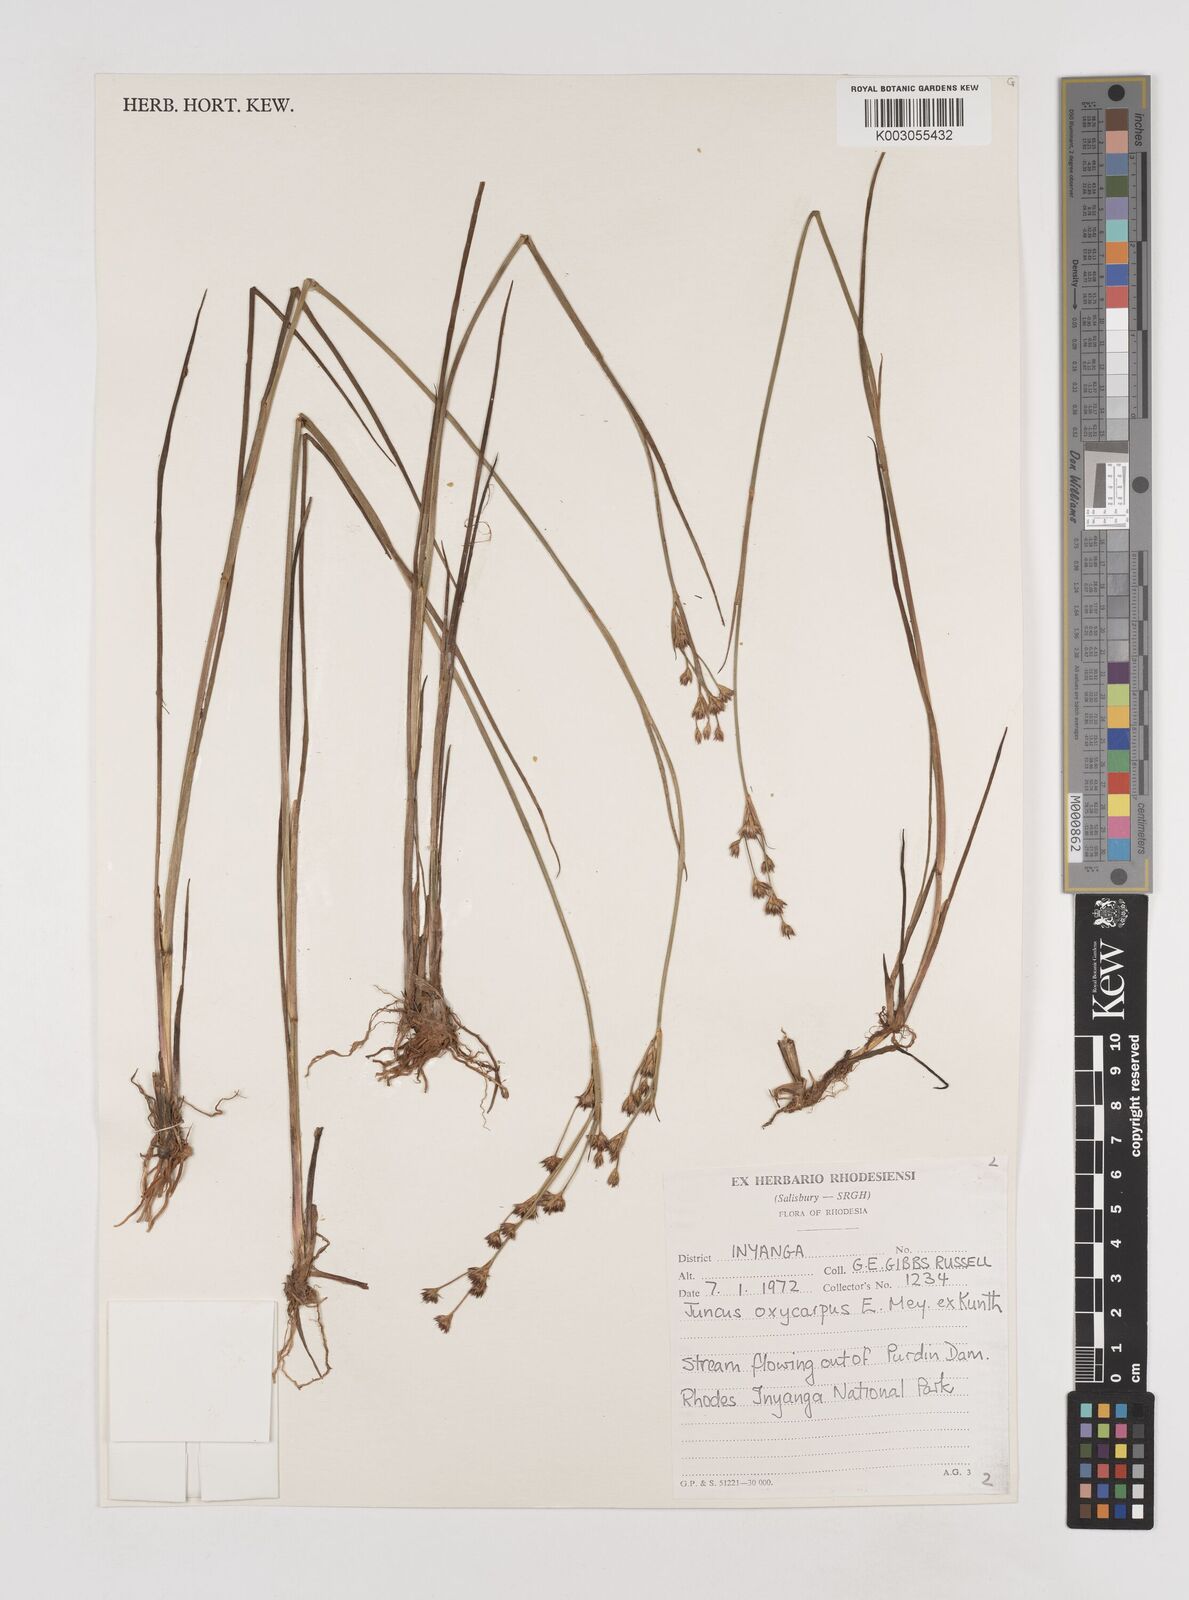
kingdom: Plantae
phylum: Tracheophyta
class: Liliopsida
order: Poales
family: Juncaceae
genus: Juncus
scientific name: Juncus oxycarpus
